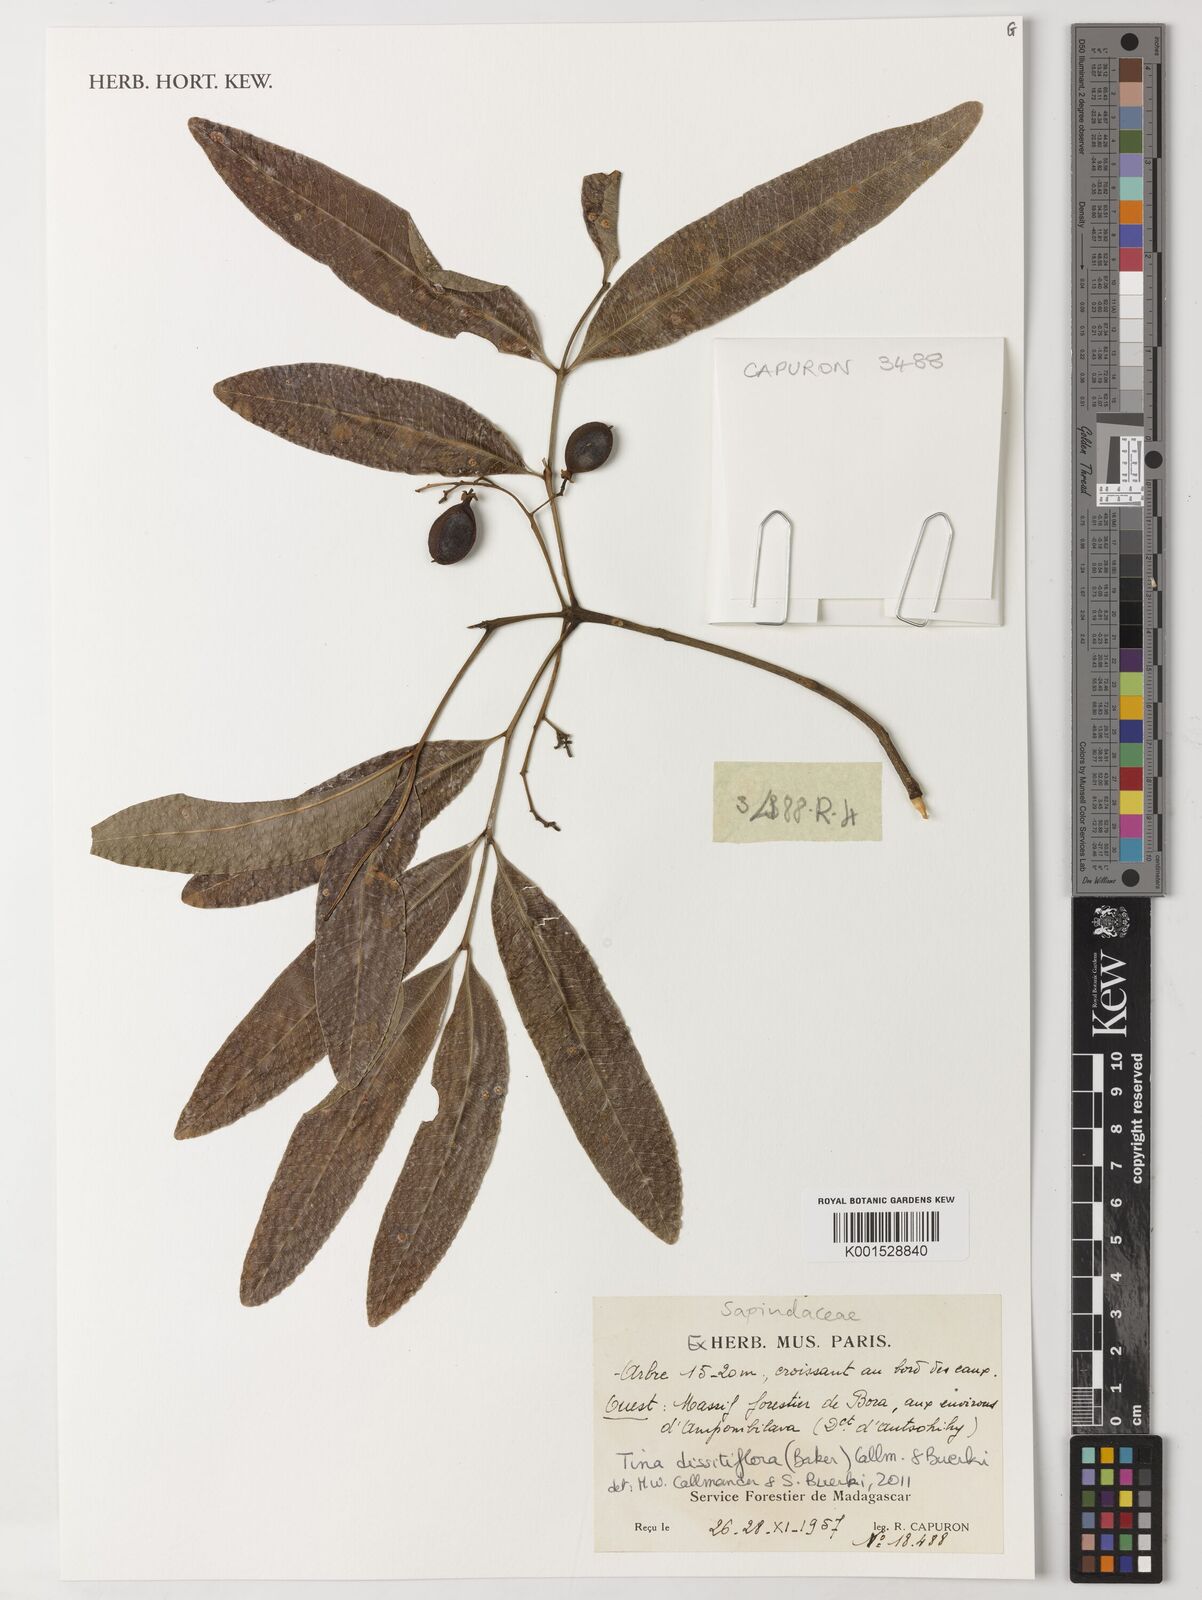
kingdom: Plantae
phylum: Tracheophyta
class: Magnoliopsida
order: Sapindales
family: Sapindaceae
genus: Tina
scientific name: Tina dissitiflora
